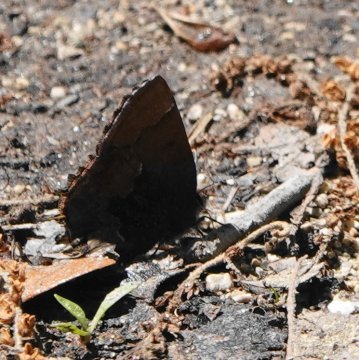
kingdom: Animalia
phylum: Arthropoda
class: Insecta
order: Lepidoptera
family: Lycaenidae
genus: Incisalia
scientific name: Incisalia henrici
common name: Henry's Elfin
